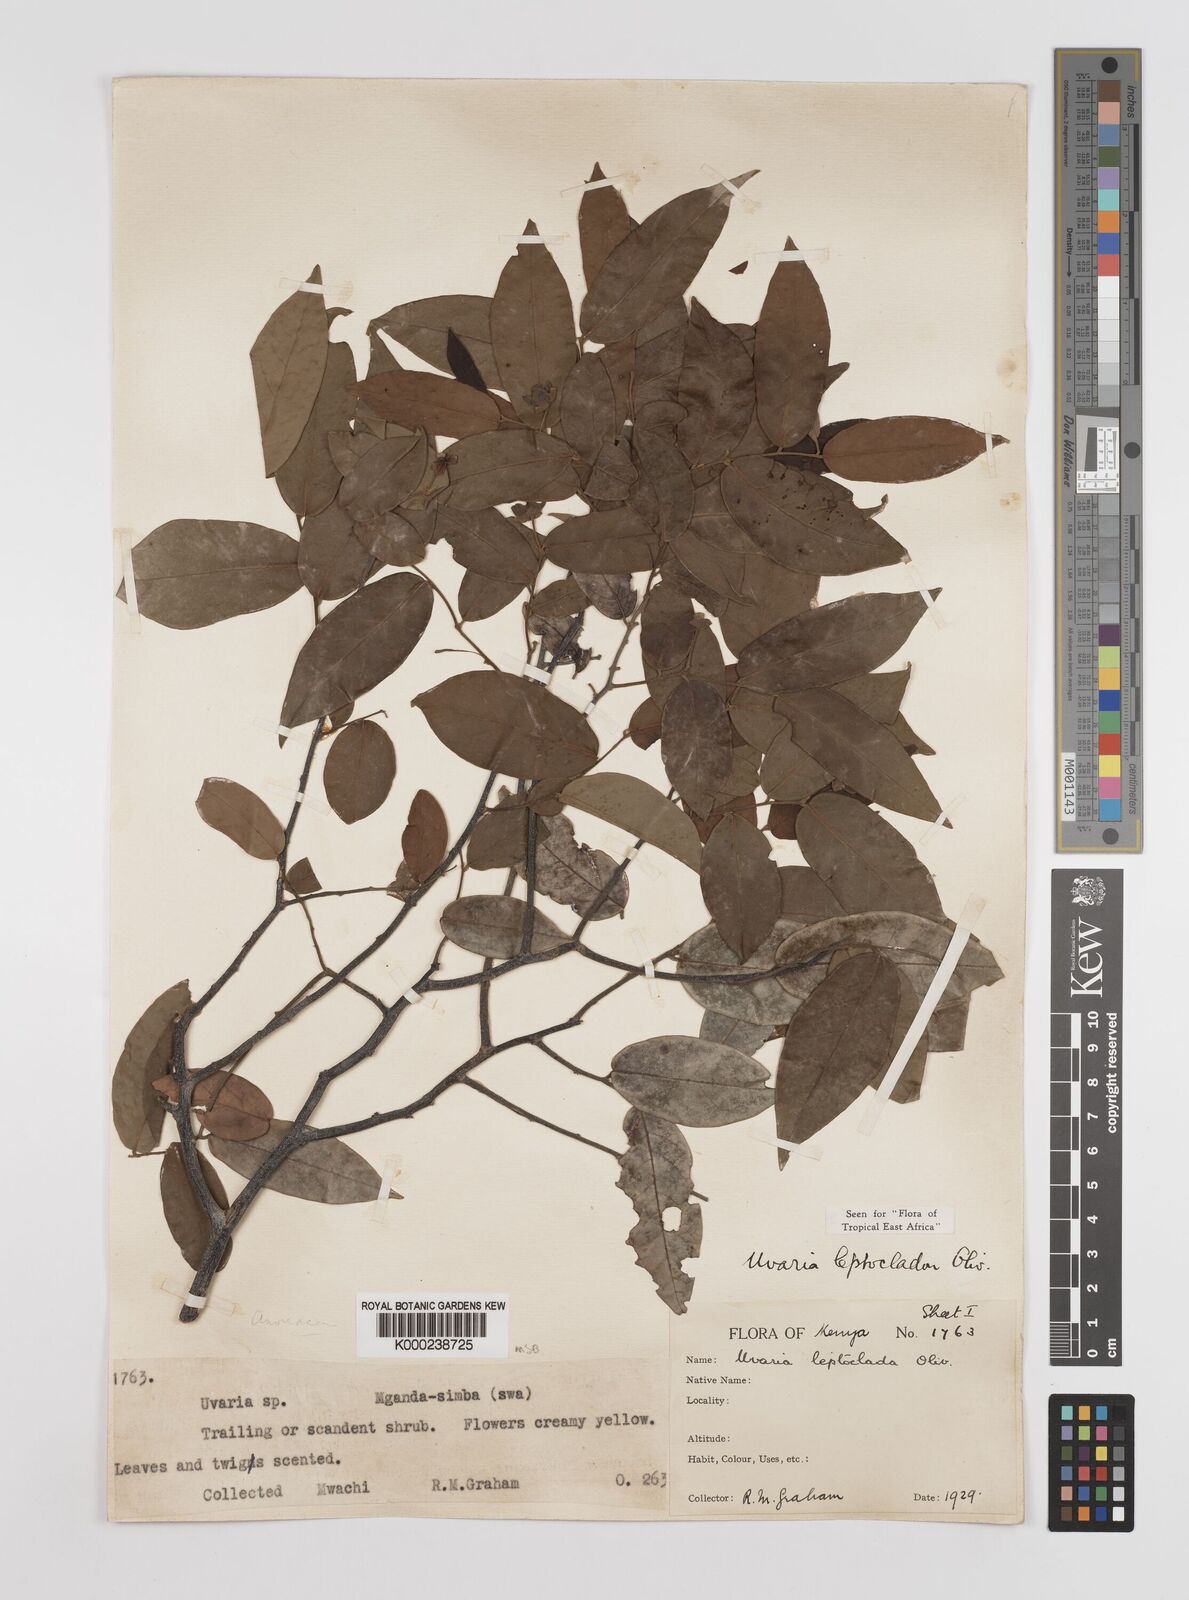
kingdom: Plantae
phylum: Tracheophyta
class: Magnoliopsida
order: Magnoliales
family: Annonaceae
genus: Uvaria
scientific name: Uvaria leptocladon
